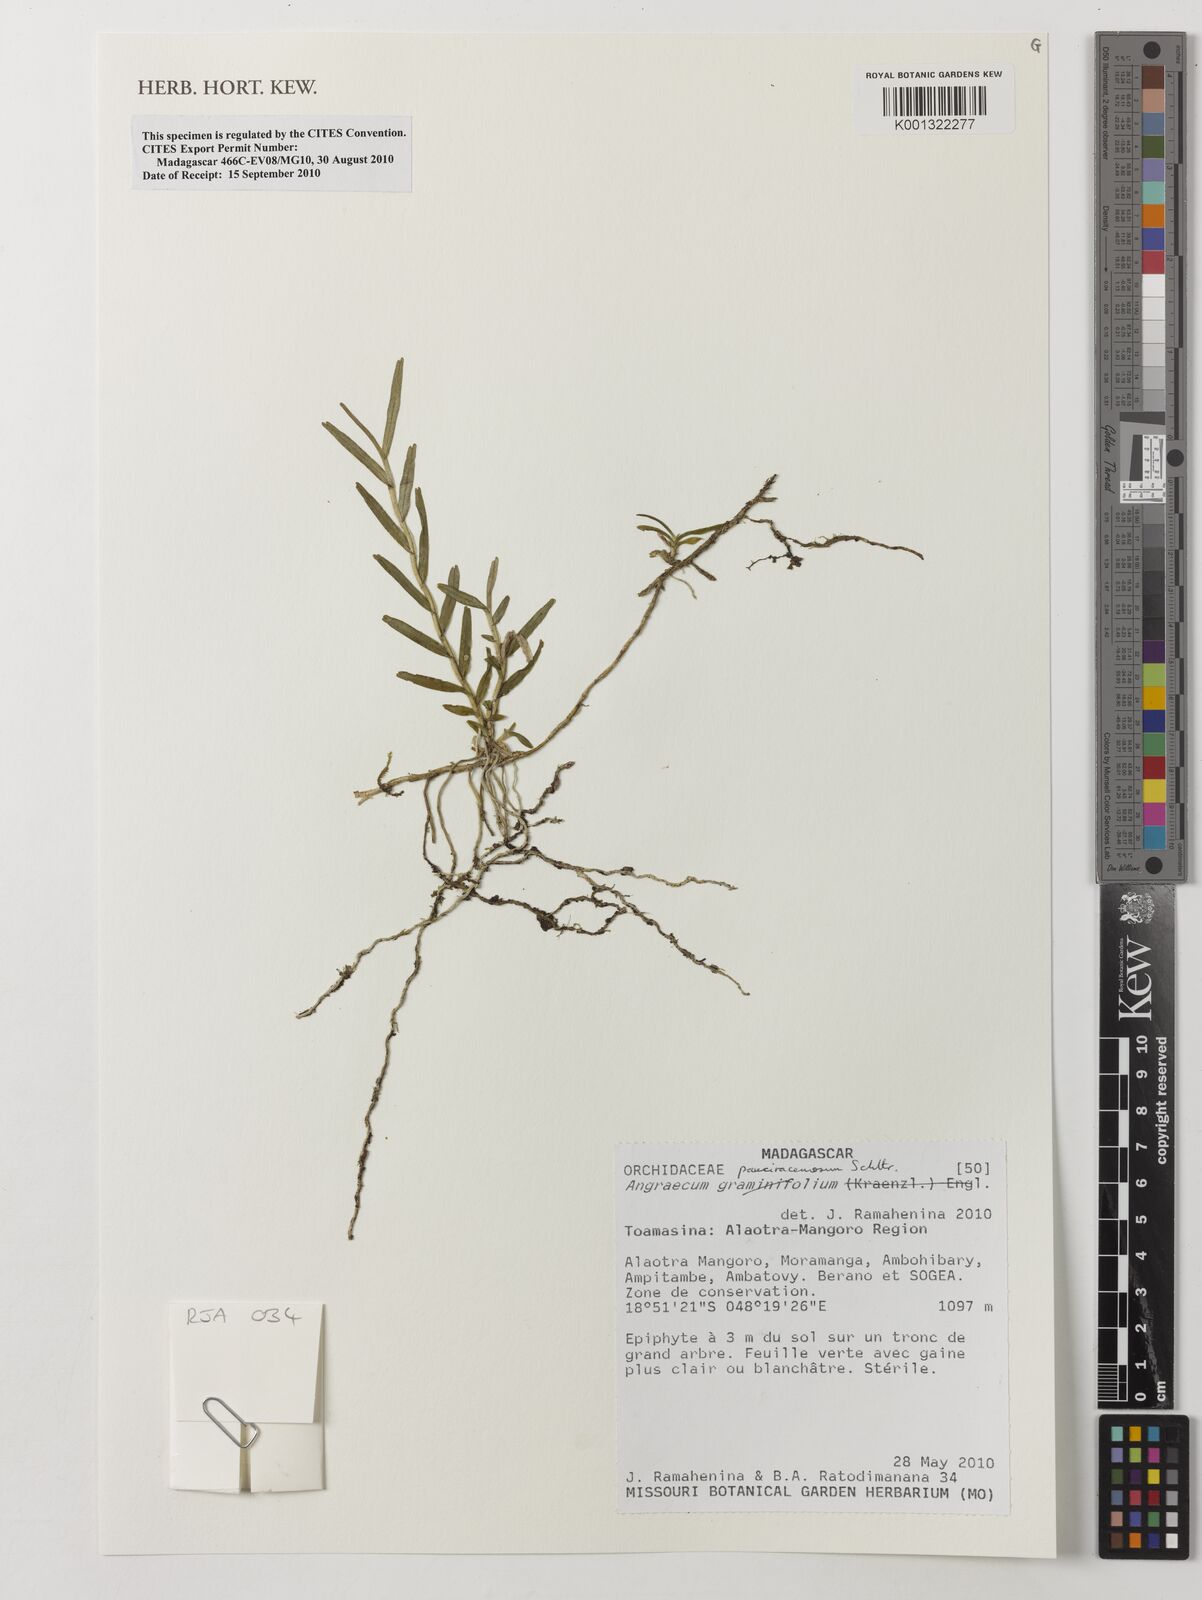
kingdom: Plantae
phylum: Tracheophyta
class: Liliopsida
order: Asparagales
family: Orchidaceae
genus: Angraecum
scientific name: Angraecum
